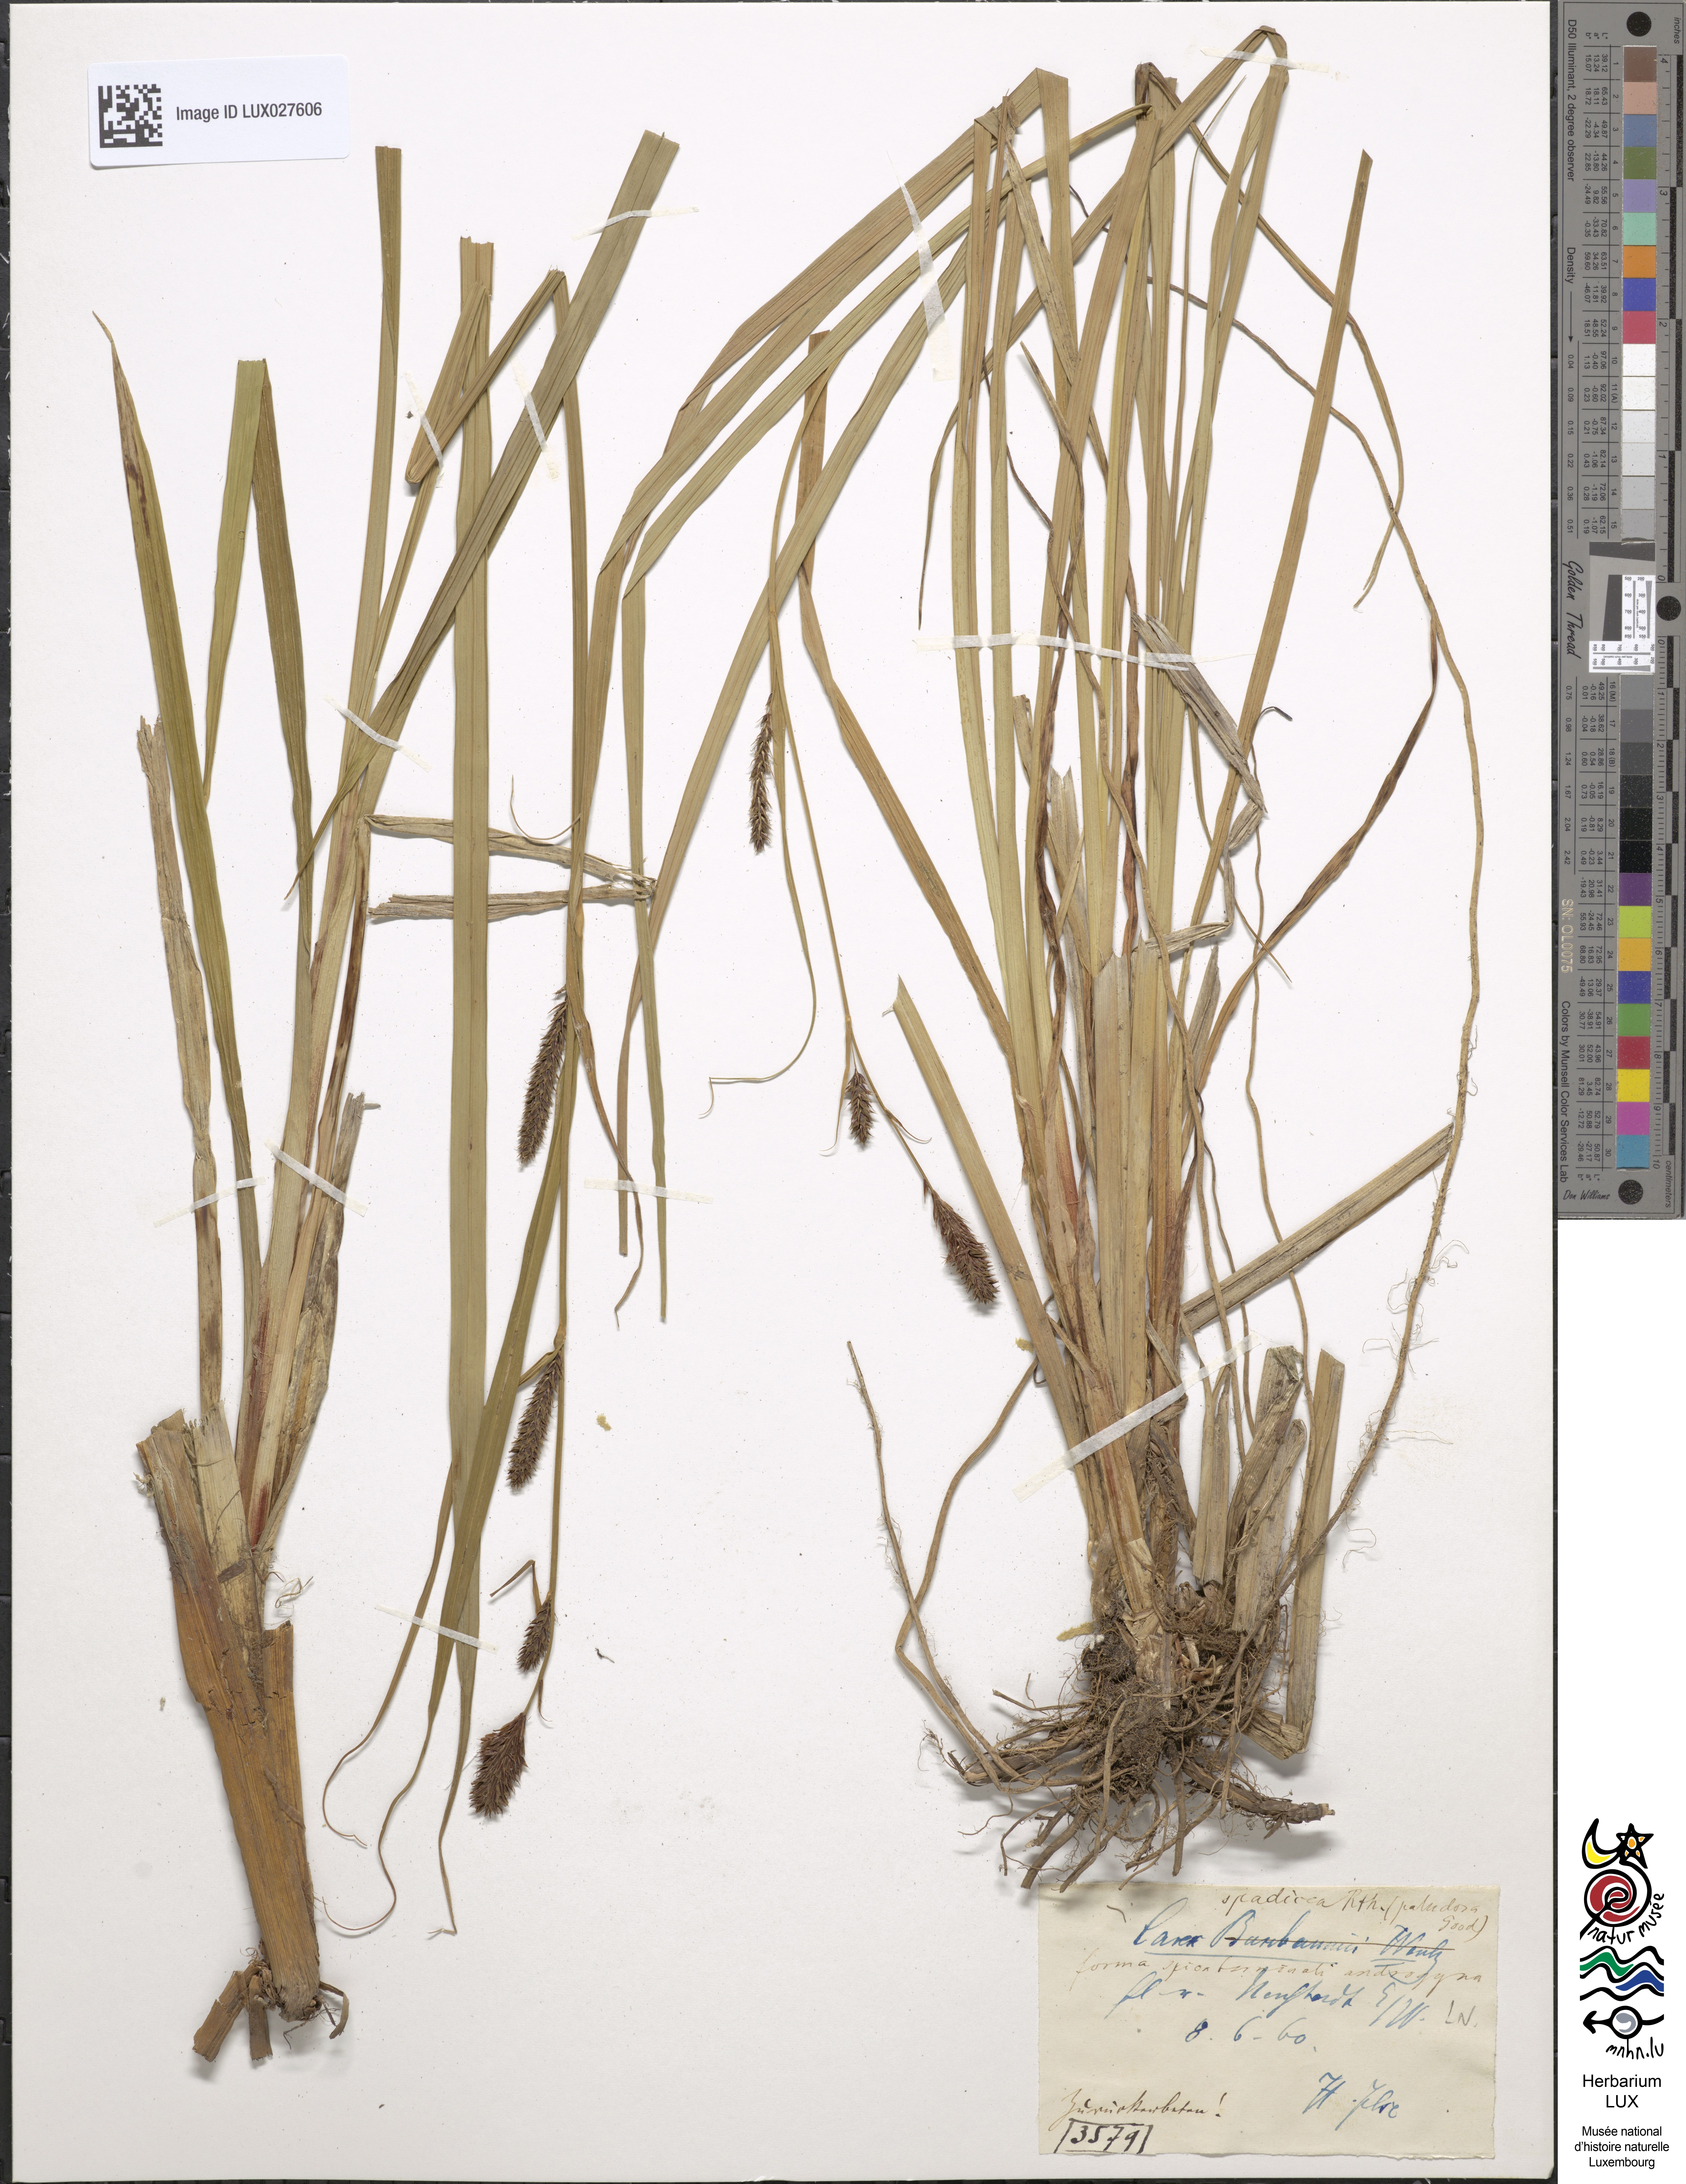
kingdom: Plantae
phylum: Tracheophyta
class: Liliopsida
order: Poales
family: Cyperaceae
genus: Carex
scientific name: Carex acutiformis
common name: Lesser pond-sedge
